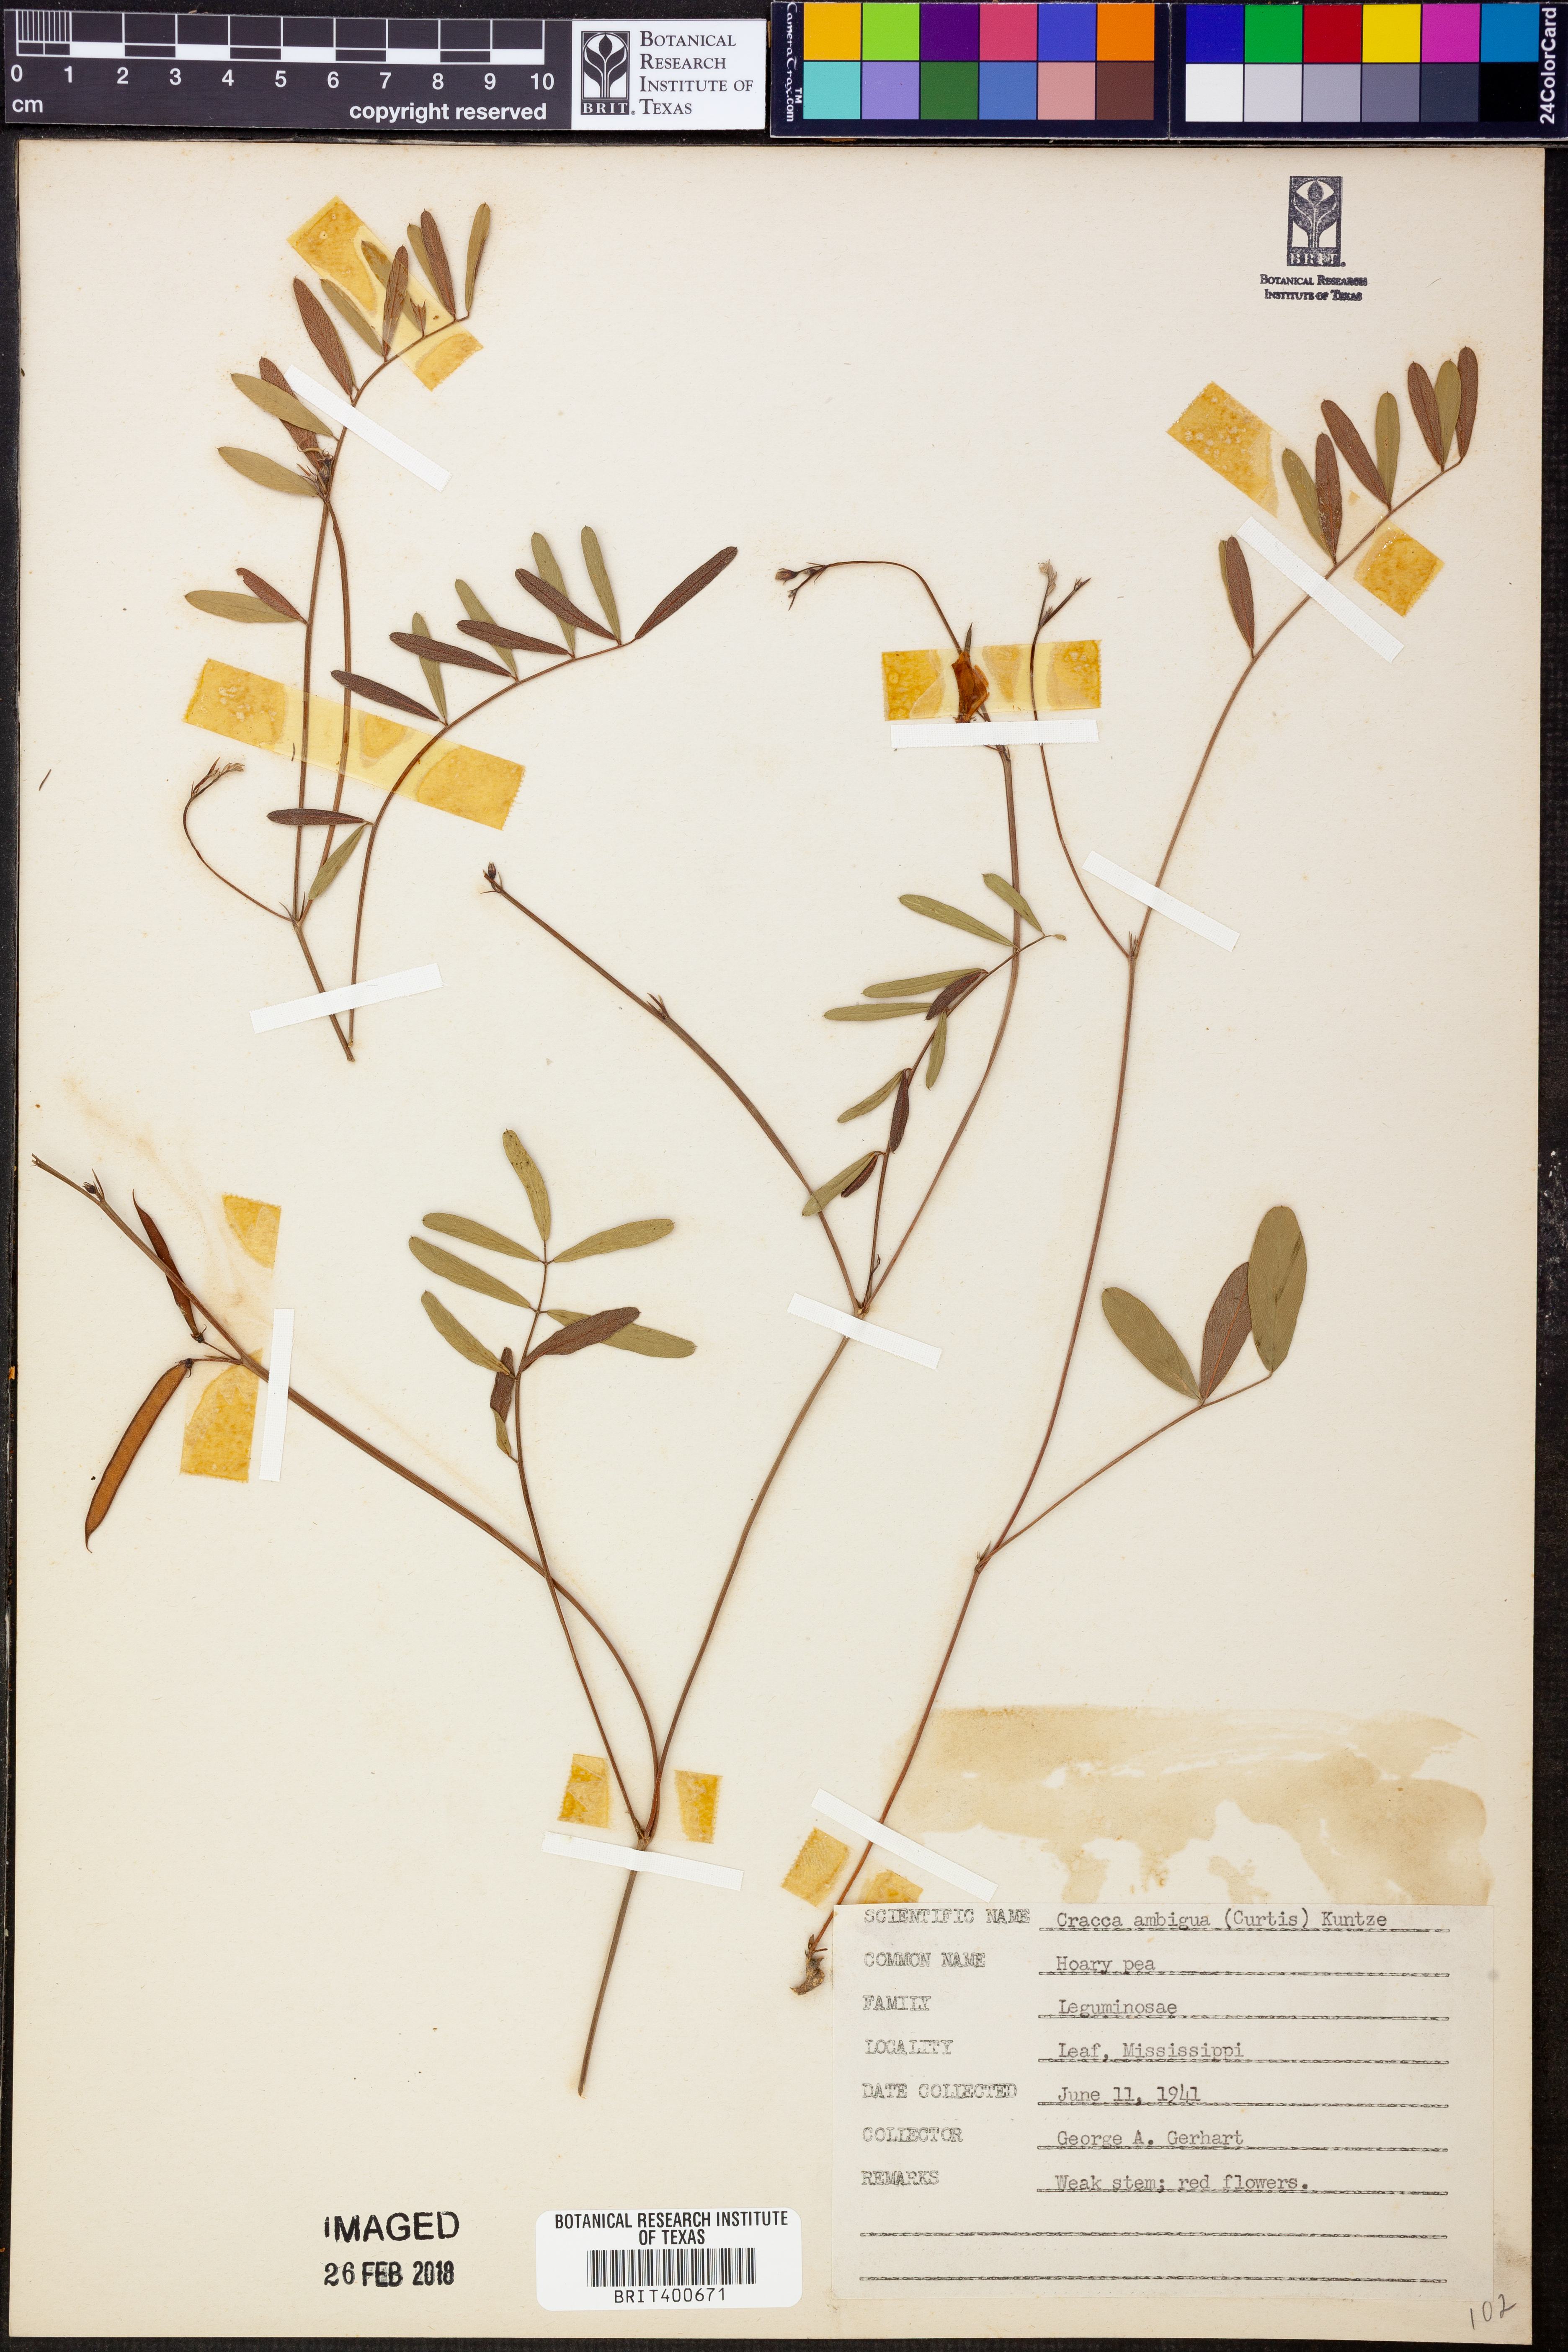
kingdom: Plantae
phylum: Tracheophyta
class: Magnoliopsida
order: Fabales
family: Fabaceae
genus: Tephrosia
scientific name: Tephrosia florida
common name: Florida hoary-pea
